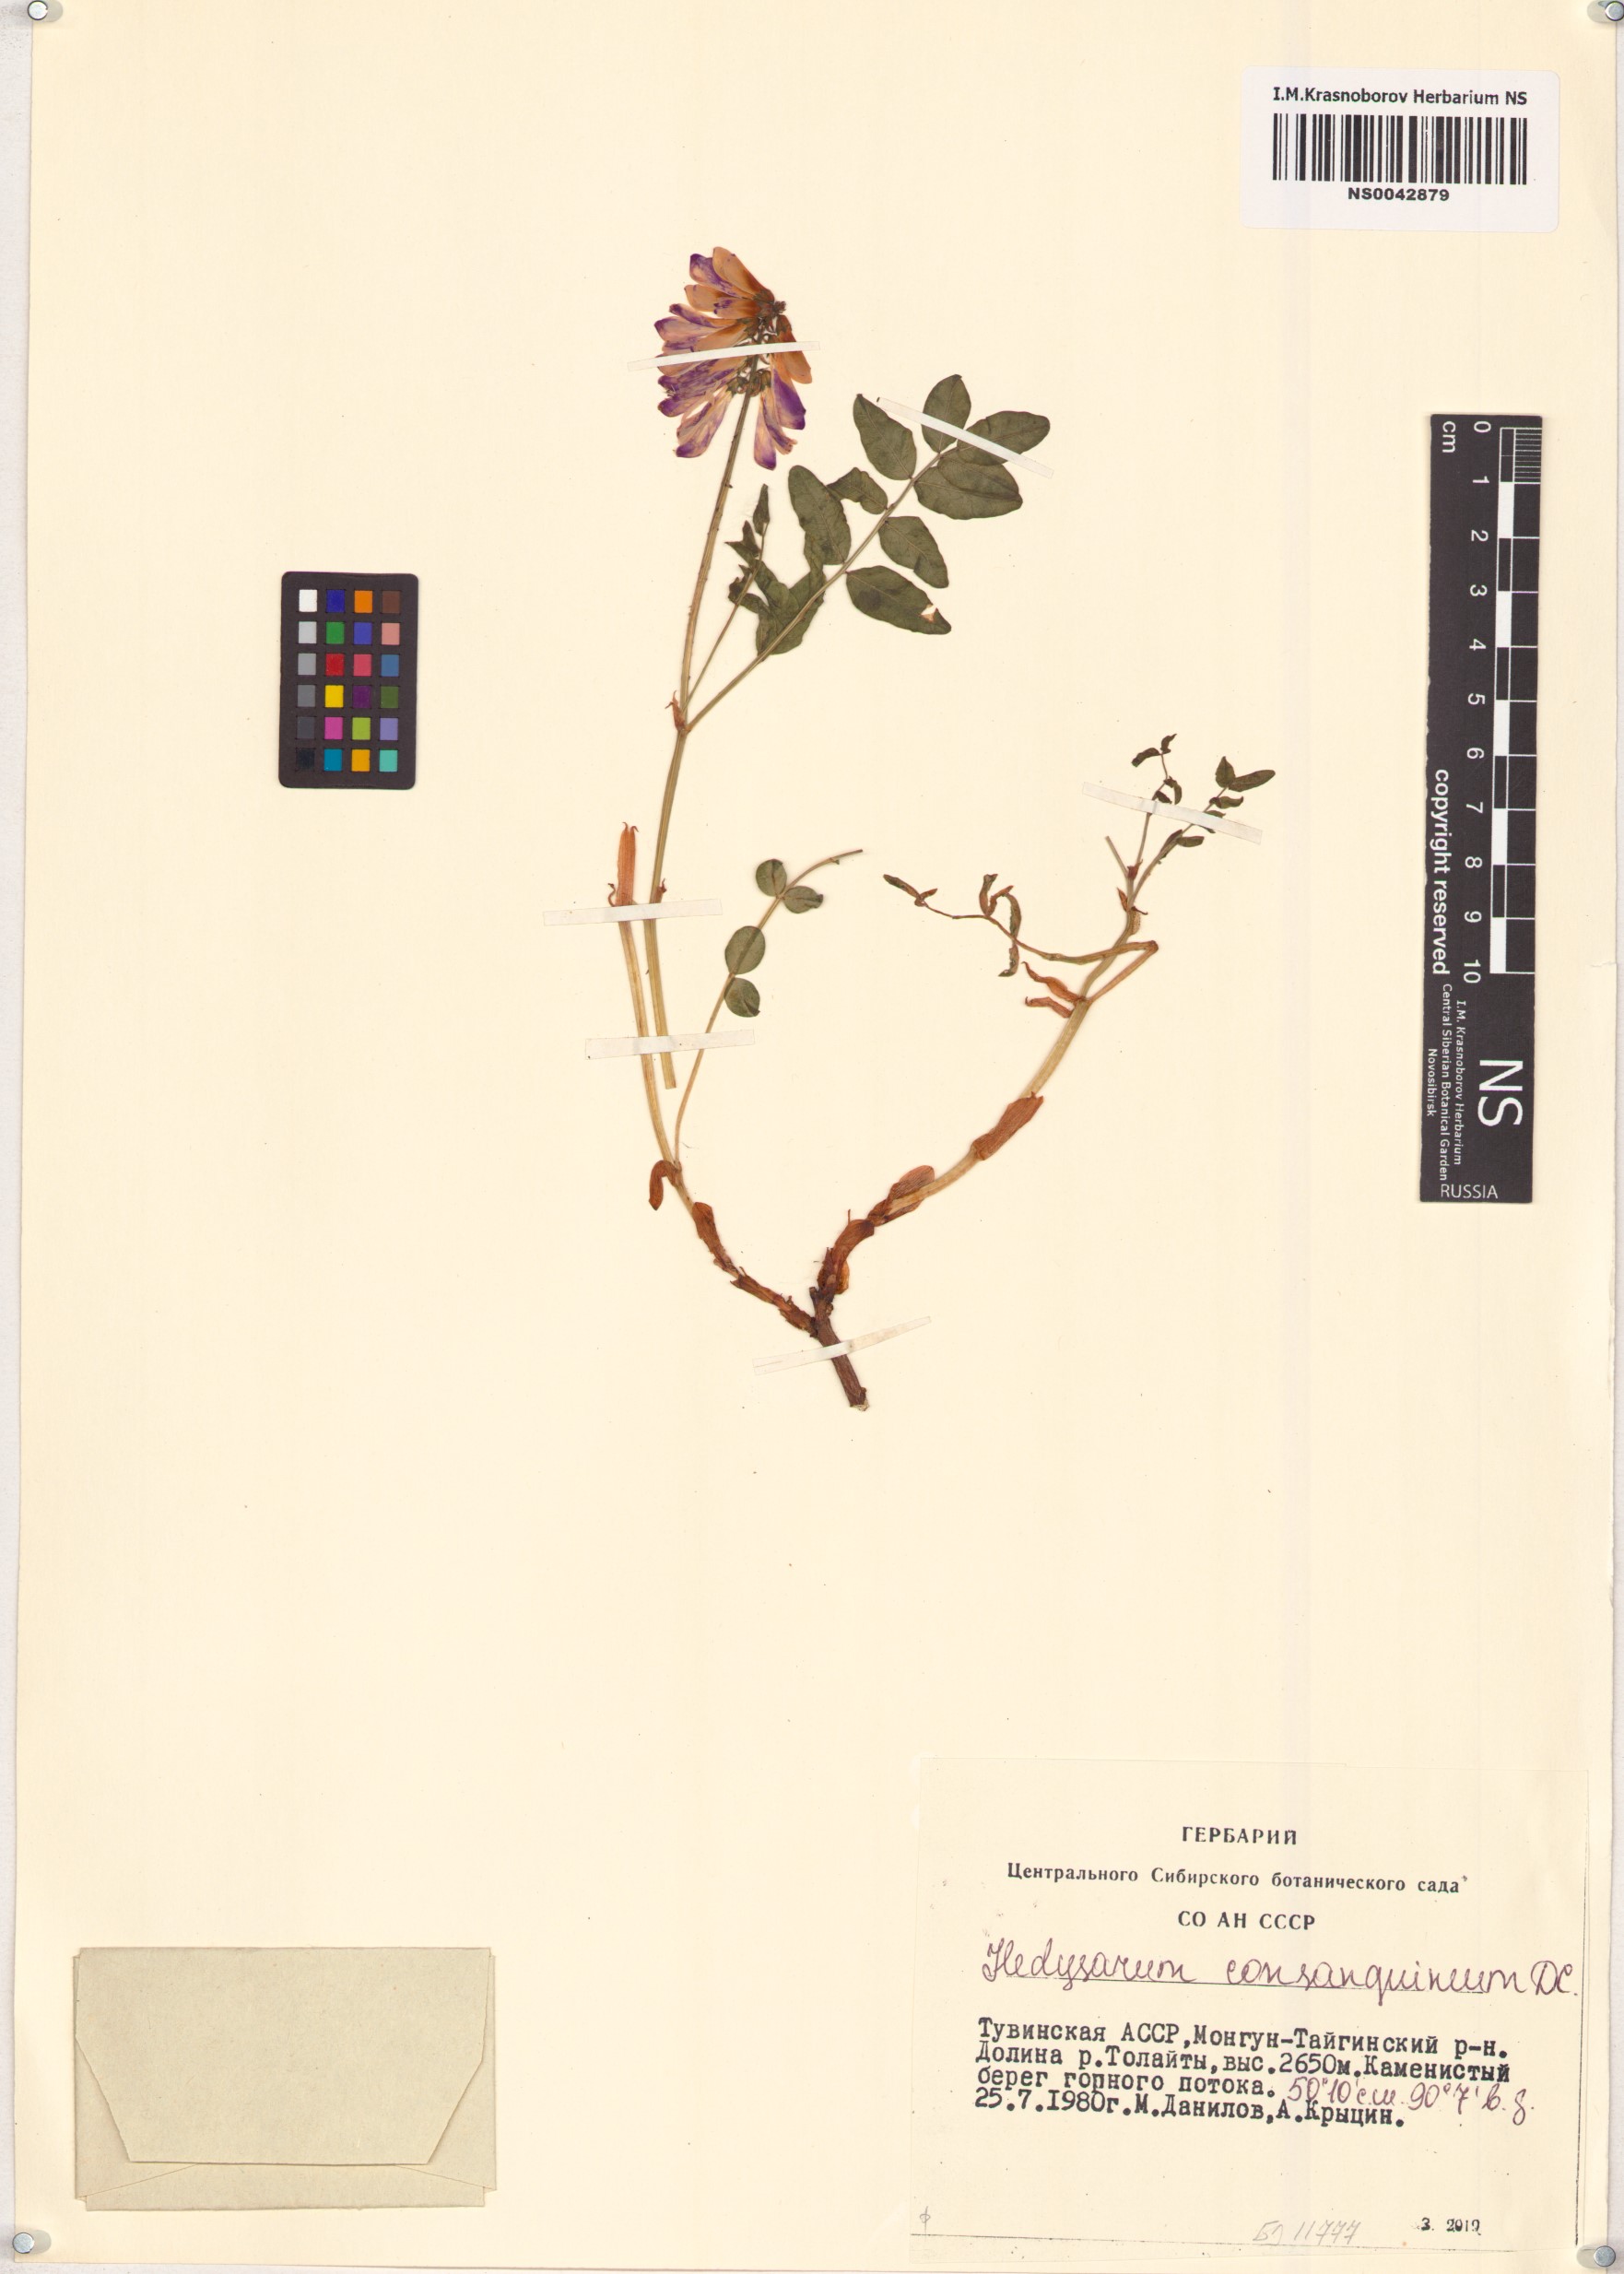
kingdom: Plantae
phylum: Tracheophyta
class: Magnoliopsida
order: Fabales
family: Fabaceae
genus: Hedysarum
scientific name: Hedysarum consanguineum
